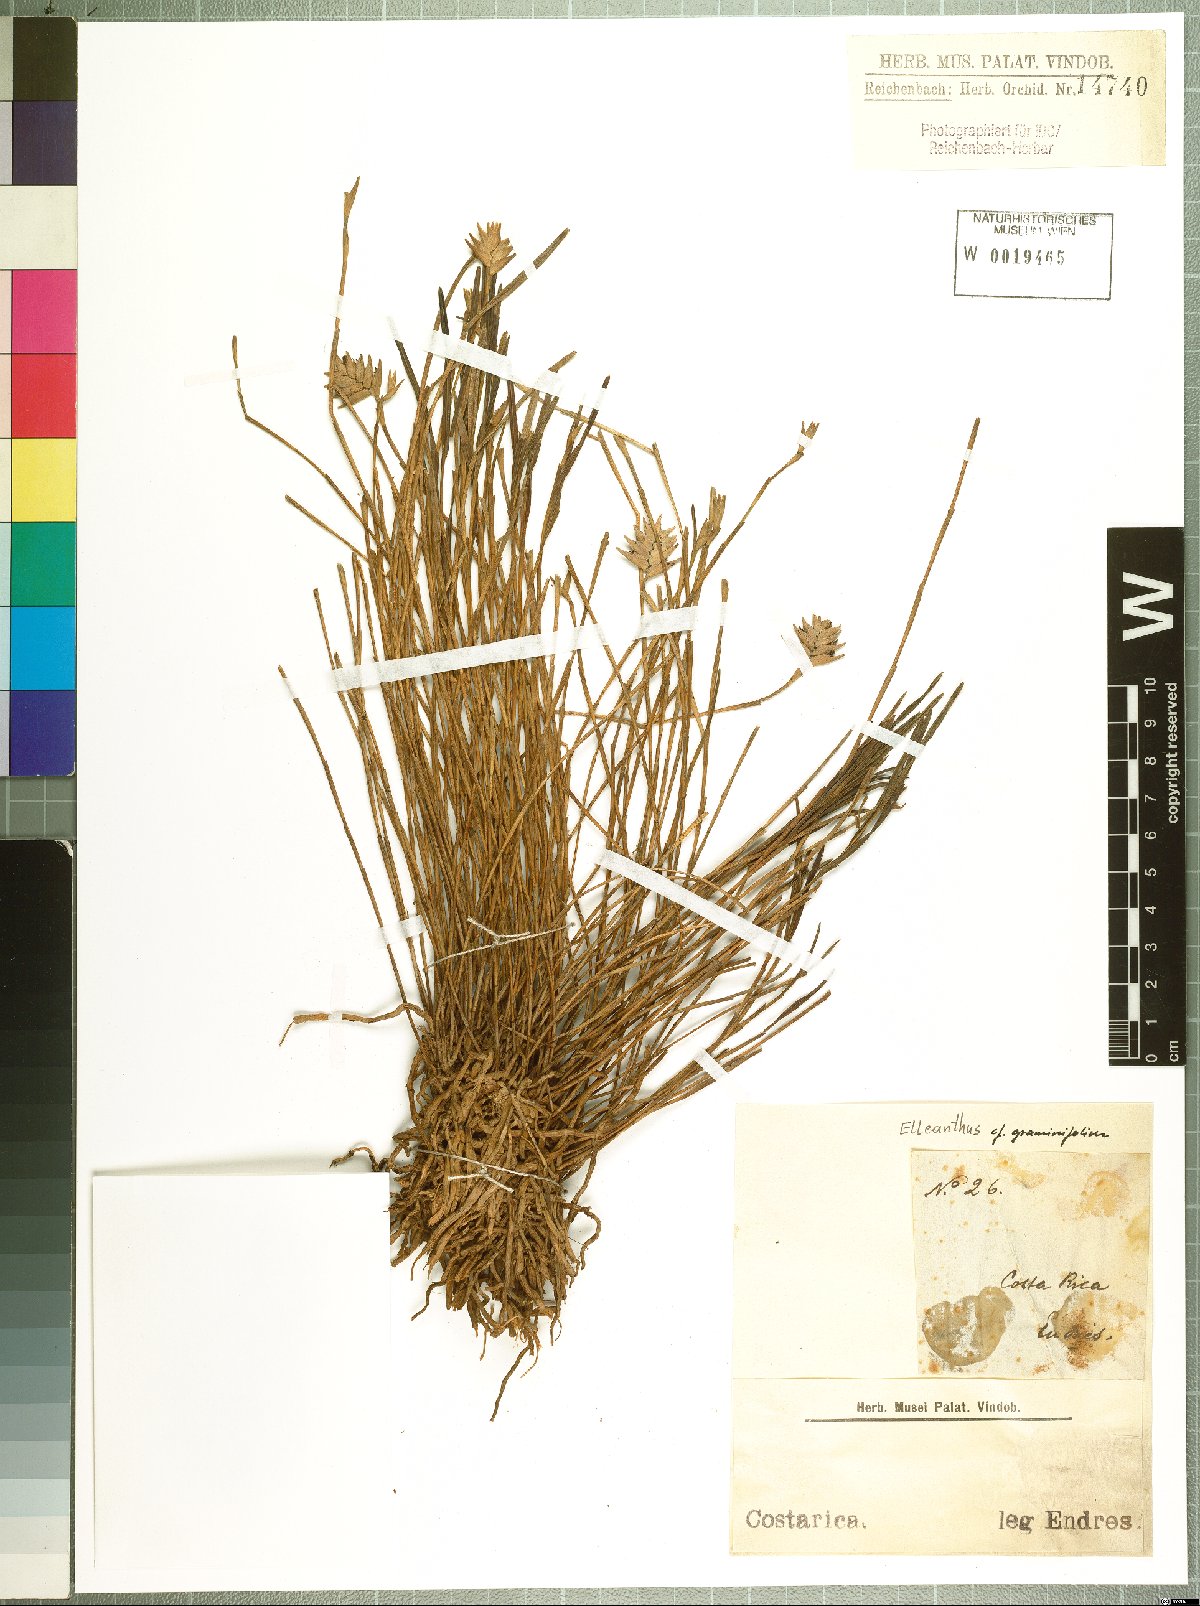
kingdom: Plantae
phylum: Tracheophyta
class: Liliopsida
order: Asparagales
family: Orchidaceae
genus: Elleanthus
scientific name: Elleanthus graminifolius
